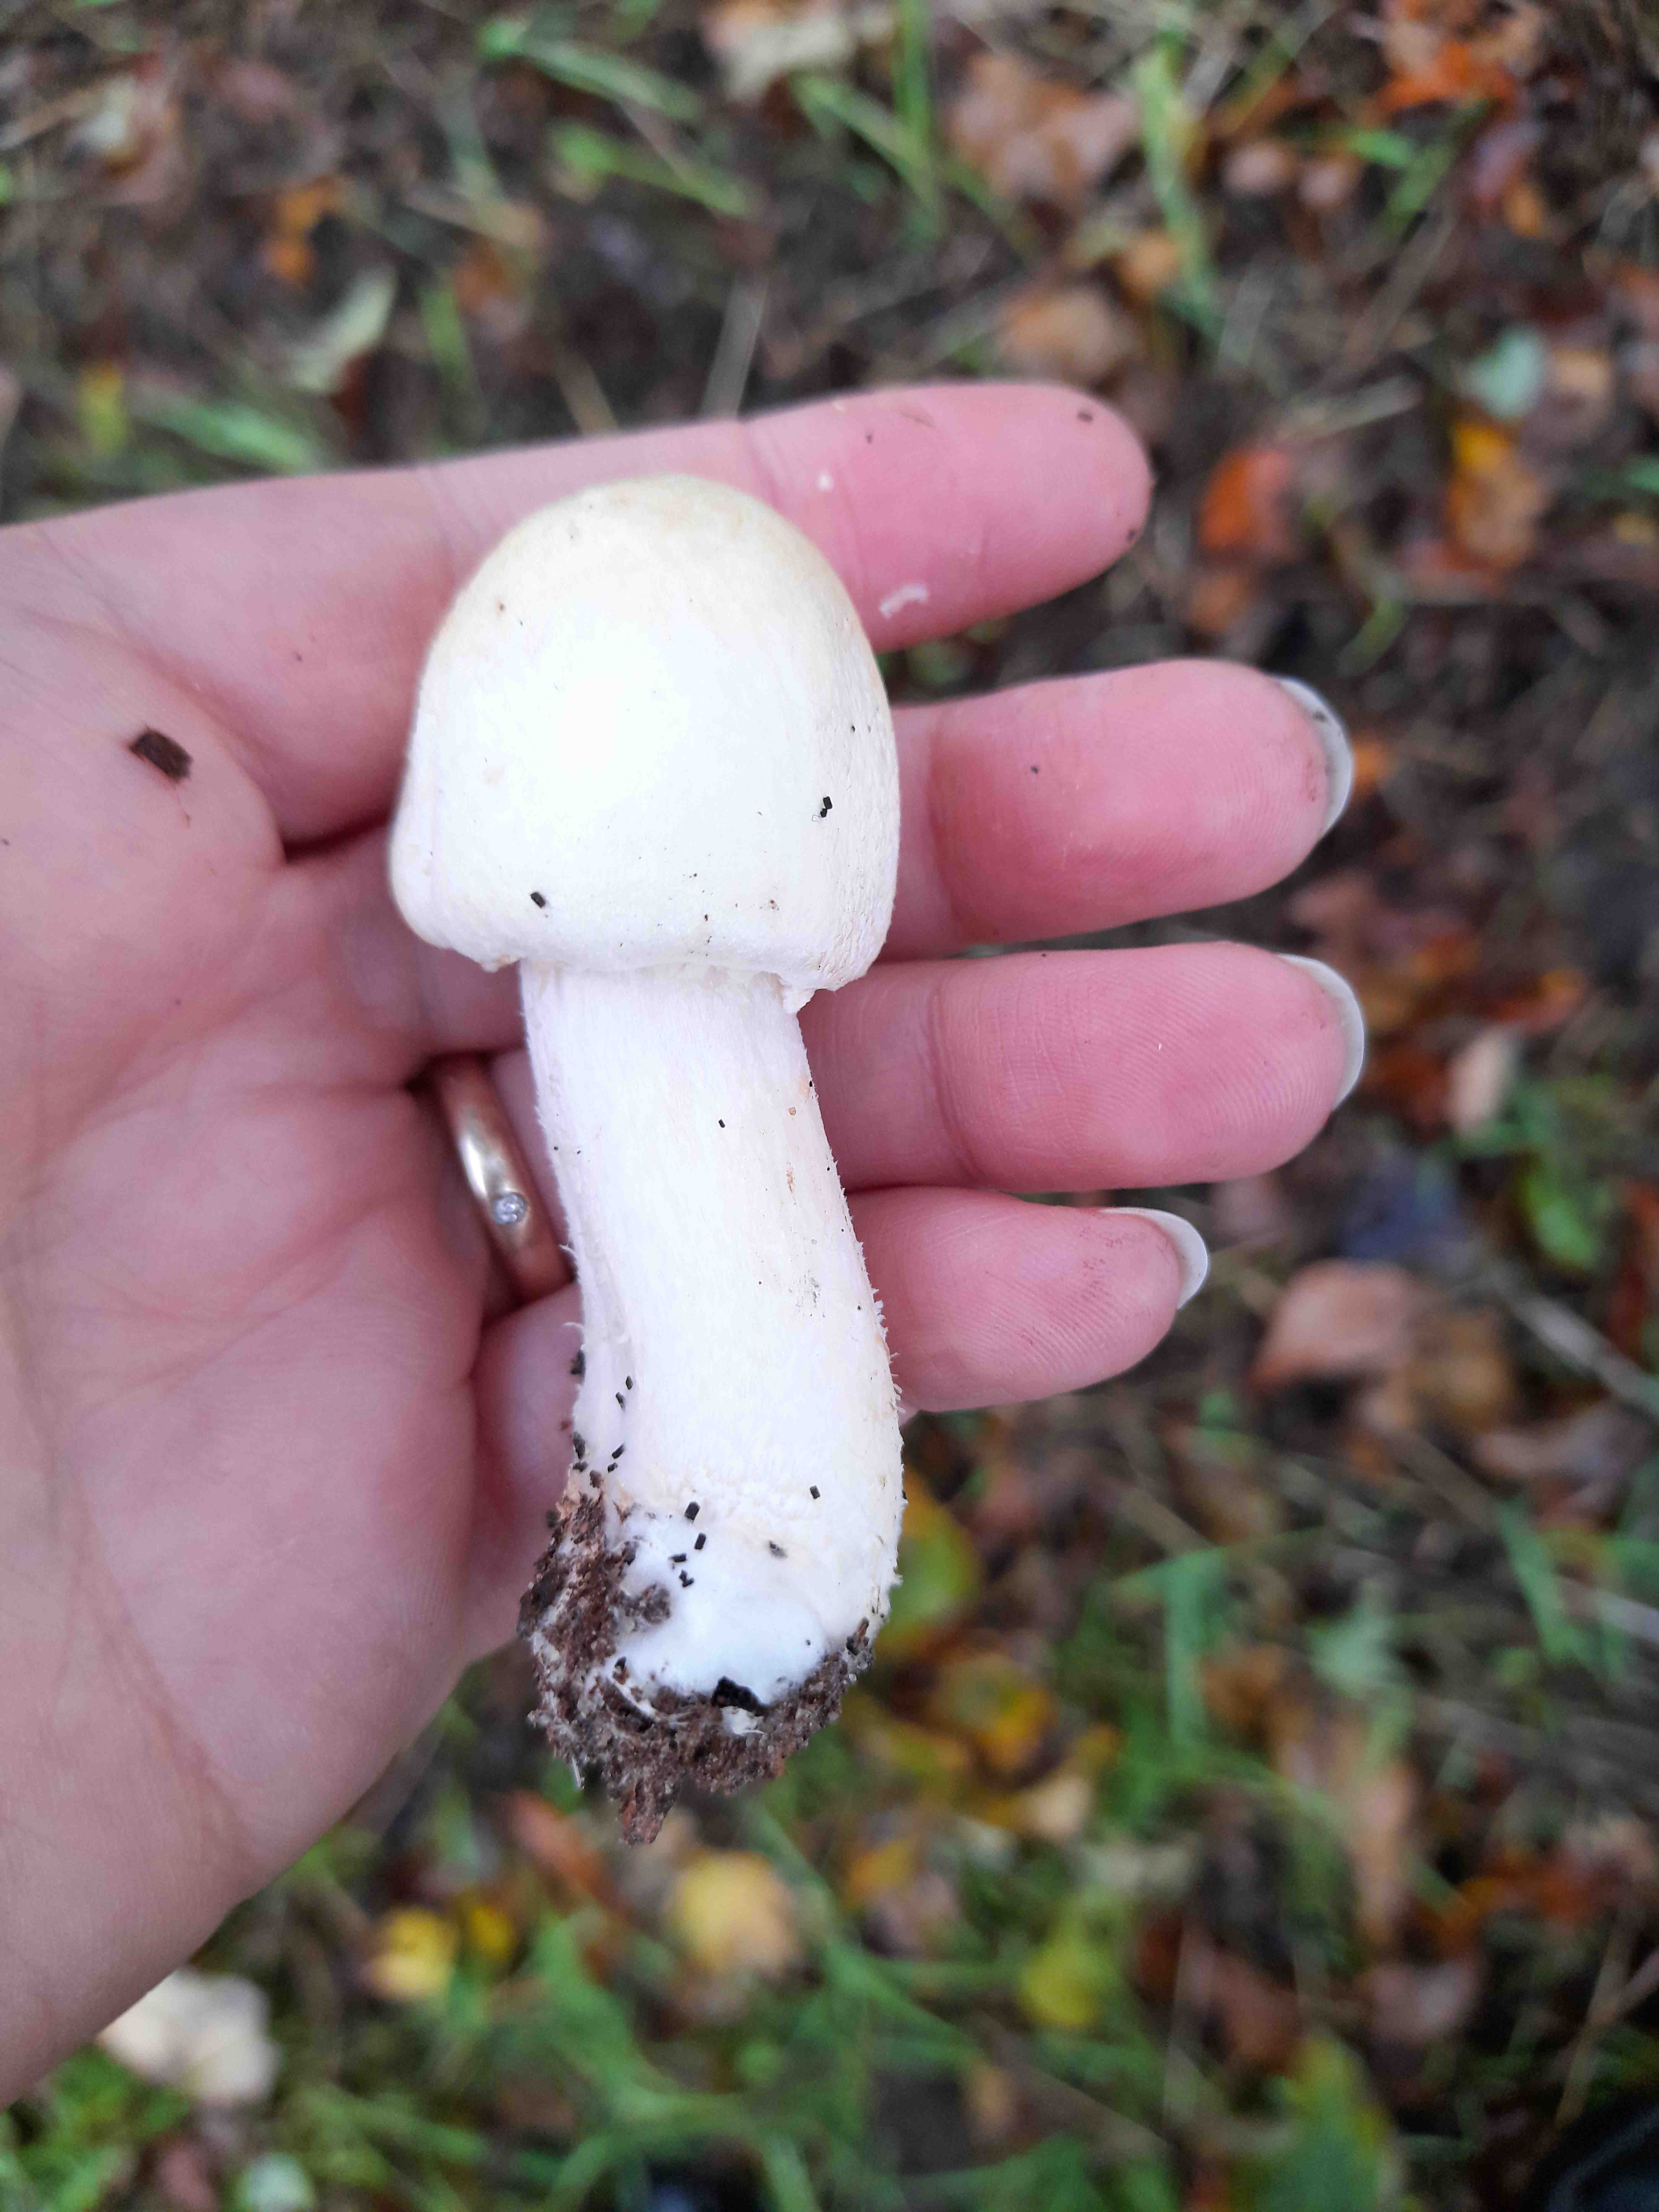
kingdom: Fungi
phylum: Basidiomycota
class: Agaricomycetes
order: Agaricales
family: Agaricaceae
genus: Agaricus
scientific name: Agaricus arvensis
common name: ager-champignon
